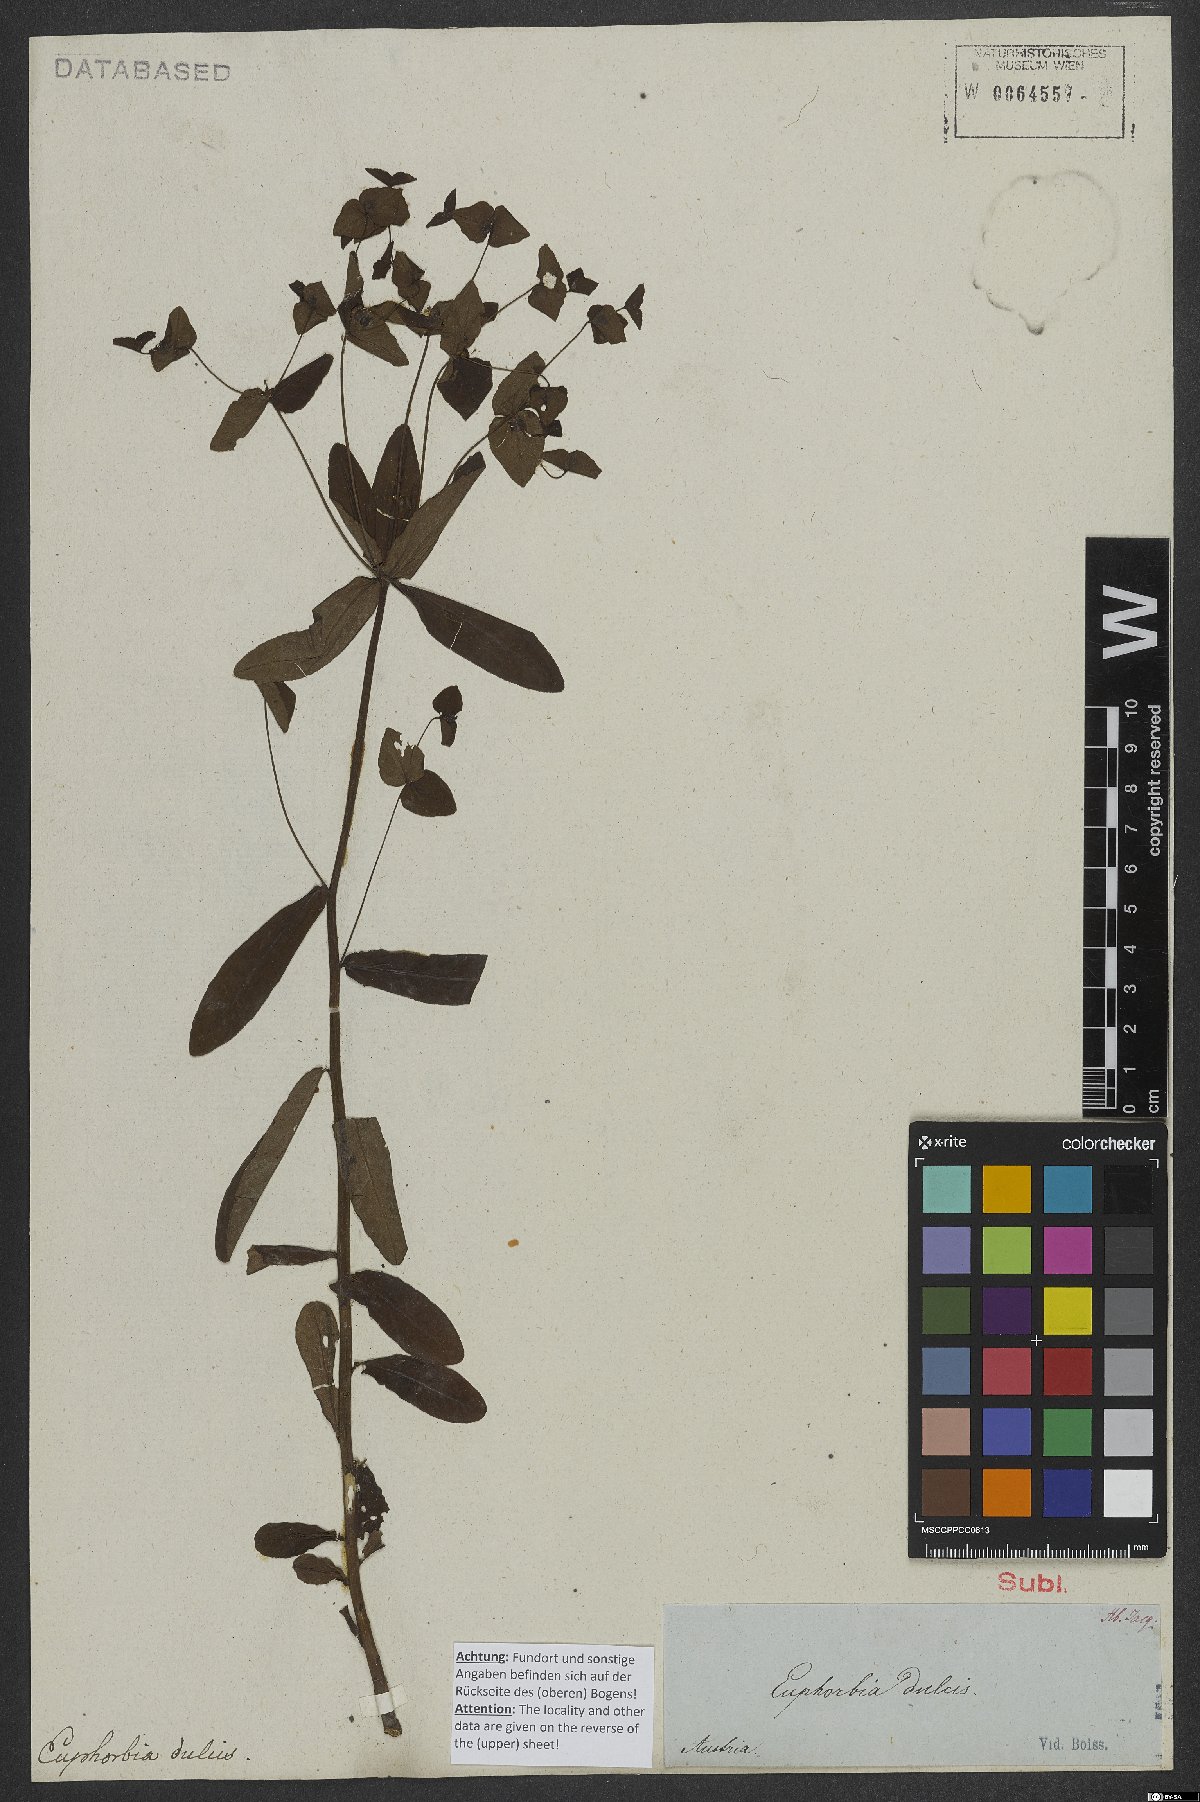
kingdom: Plantae
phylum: Tracheophyta
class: Magnoliopsida
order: Malpighiales
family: Euphorbiaceae
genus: Euphorbia
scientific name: Euphorbia dulcis
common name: Sweet spurge
